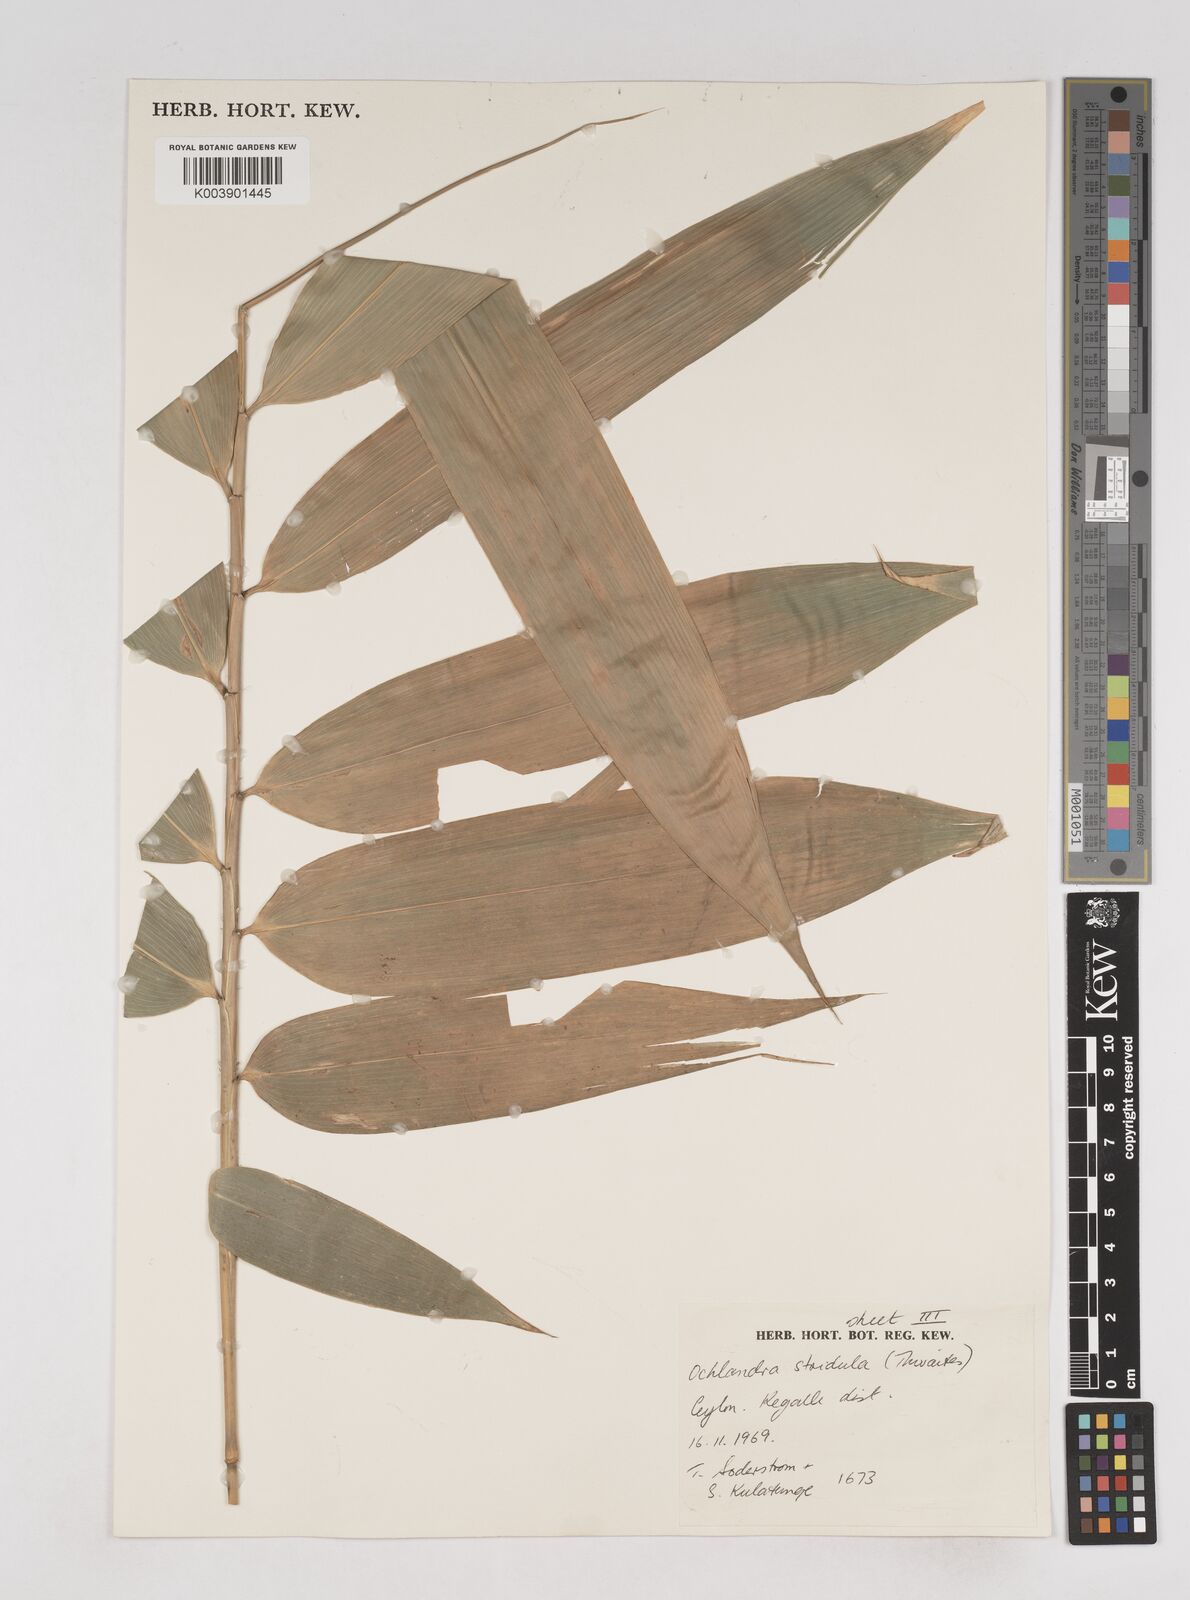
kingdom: Plantae
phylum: Tracheophyta
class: Liliopsida
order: Poales
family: Poaceae
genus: Ochlandra
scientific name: Ochlandra stridula
